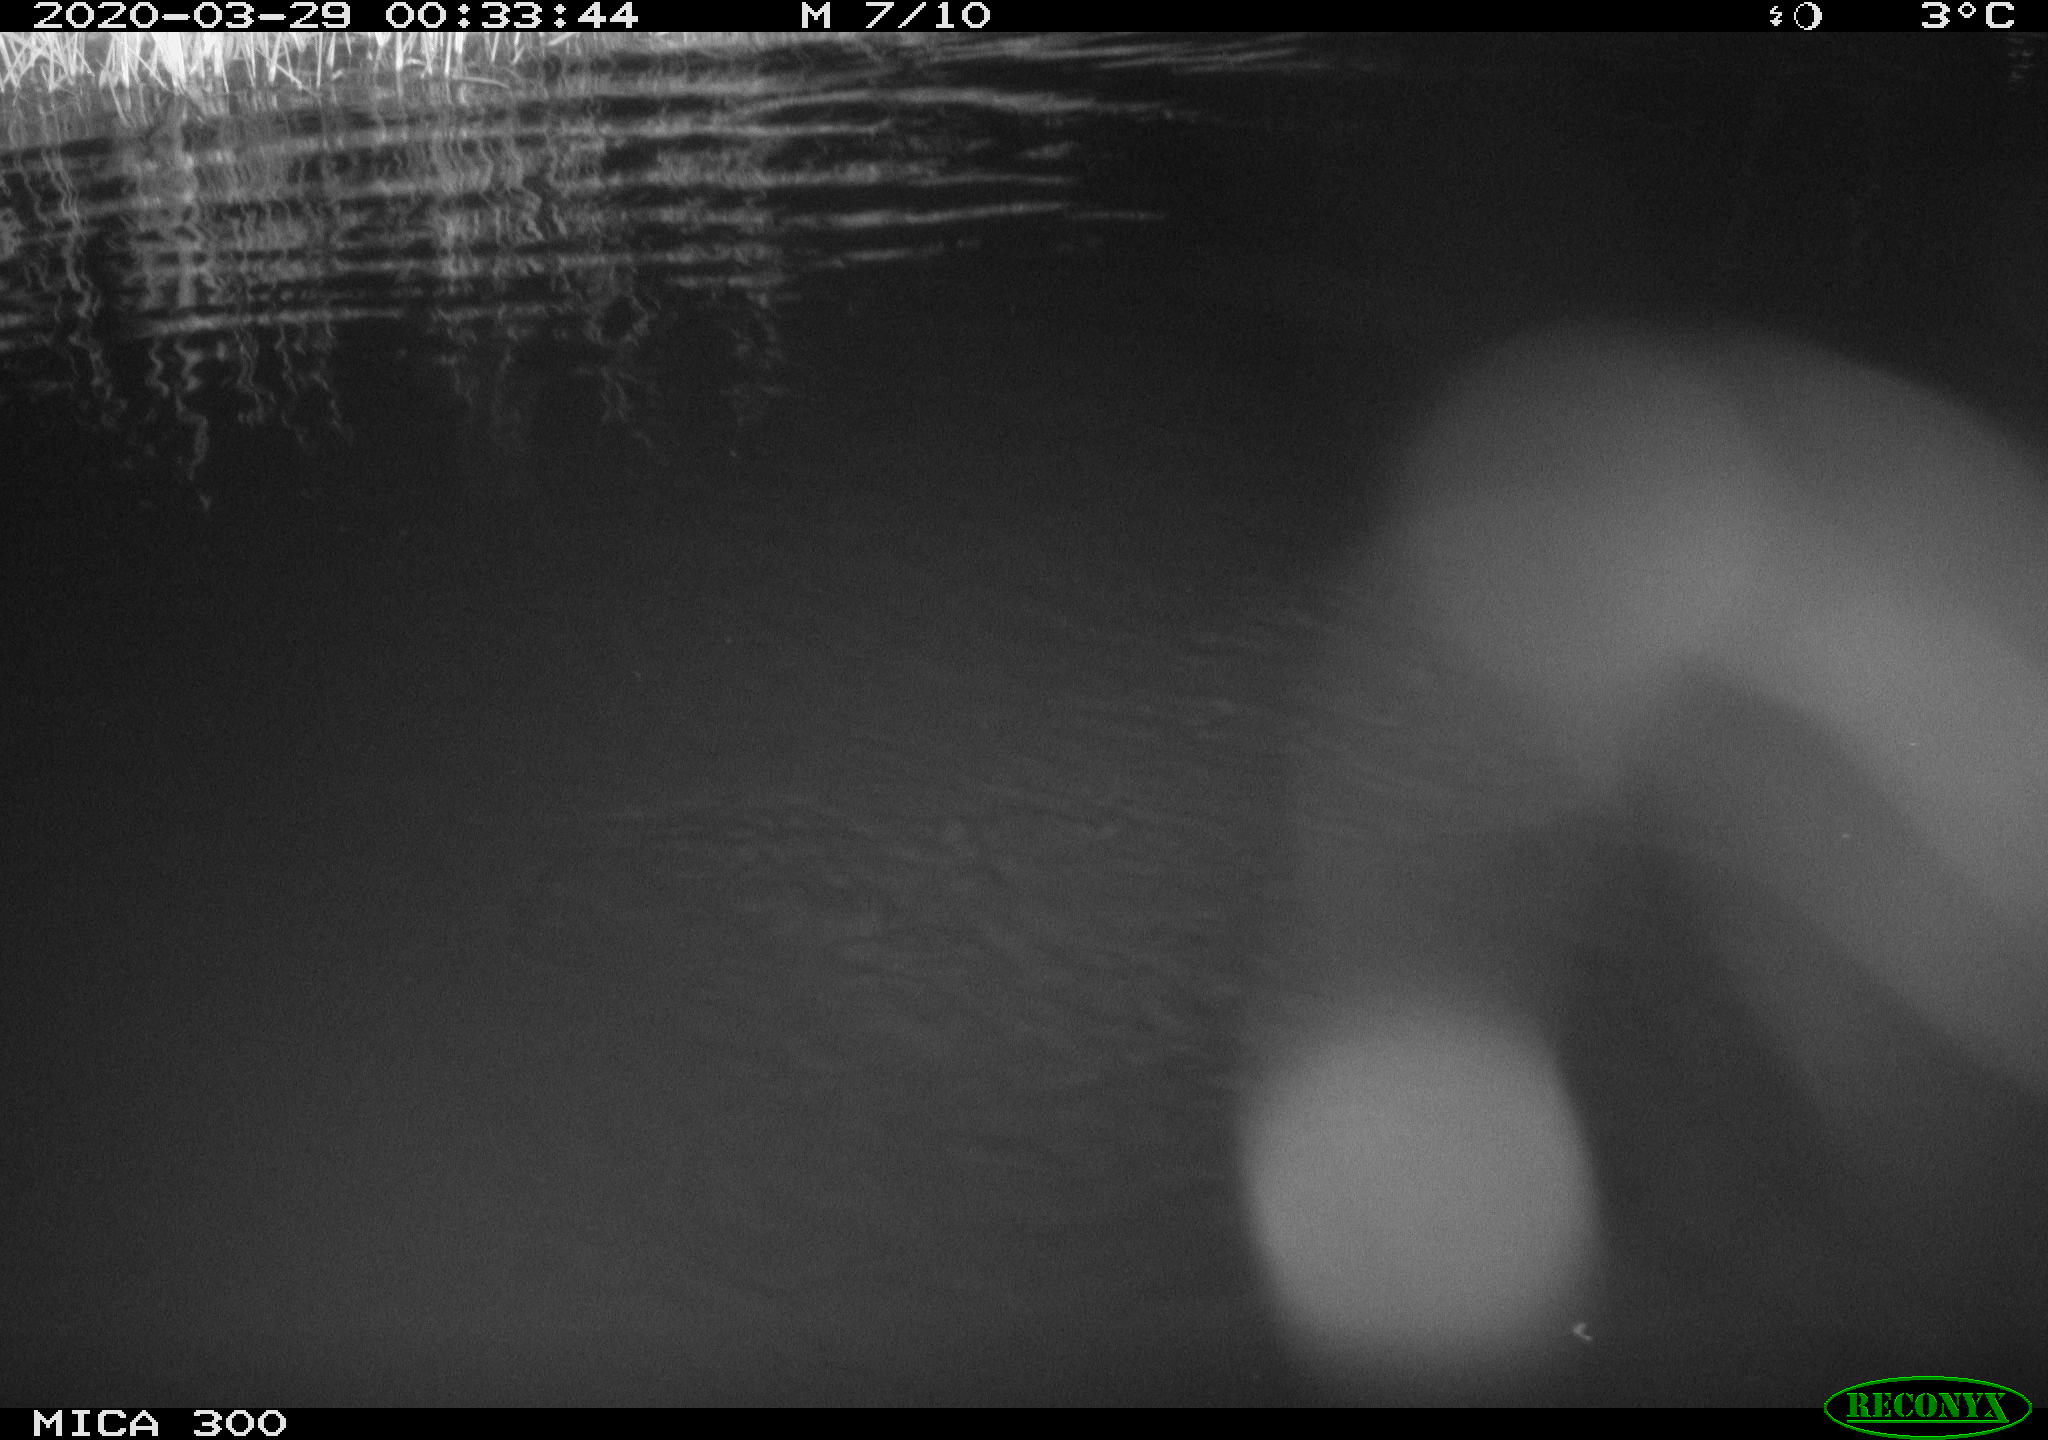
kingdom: Animalia
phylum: Chordata
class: Mammalia
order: Rodentia
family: Castoridae
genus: Castor
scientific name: Castor fiber
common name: Eurasian beaver
